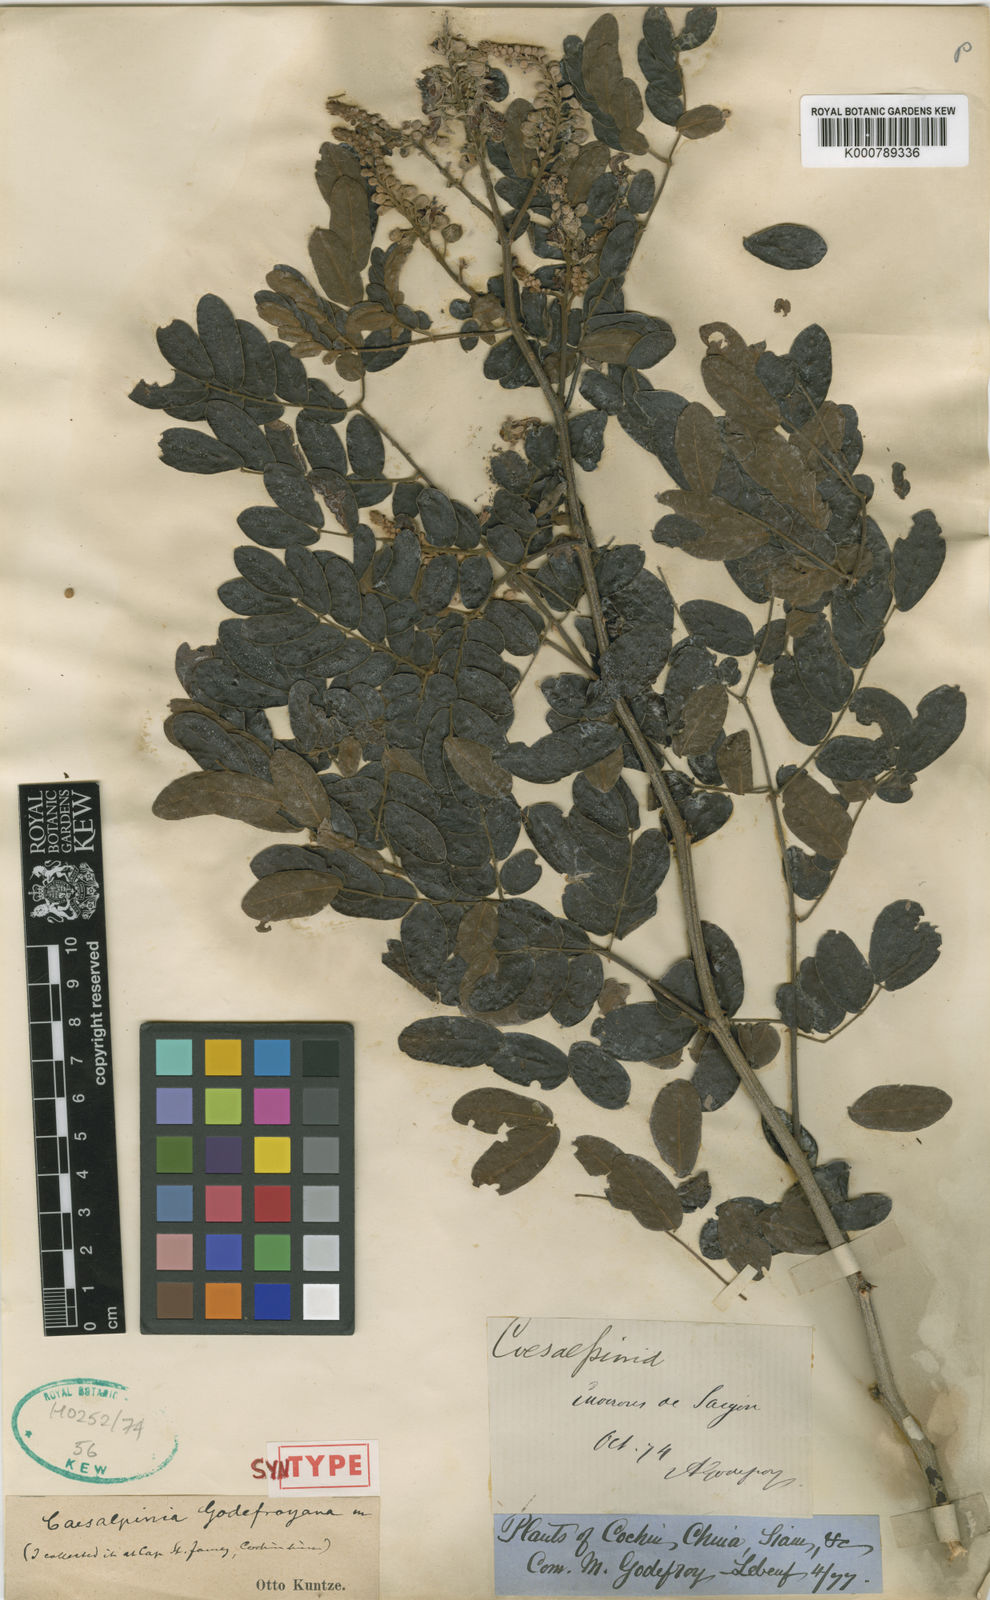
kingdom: Plantae
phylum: Tracheophyta
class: Magnoliopsida
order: Fabales
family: Fabaceae
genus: Biancaea
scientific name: Biancaea godefroyana
